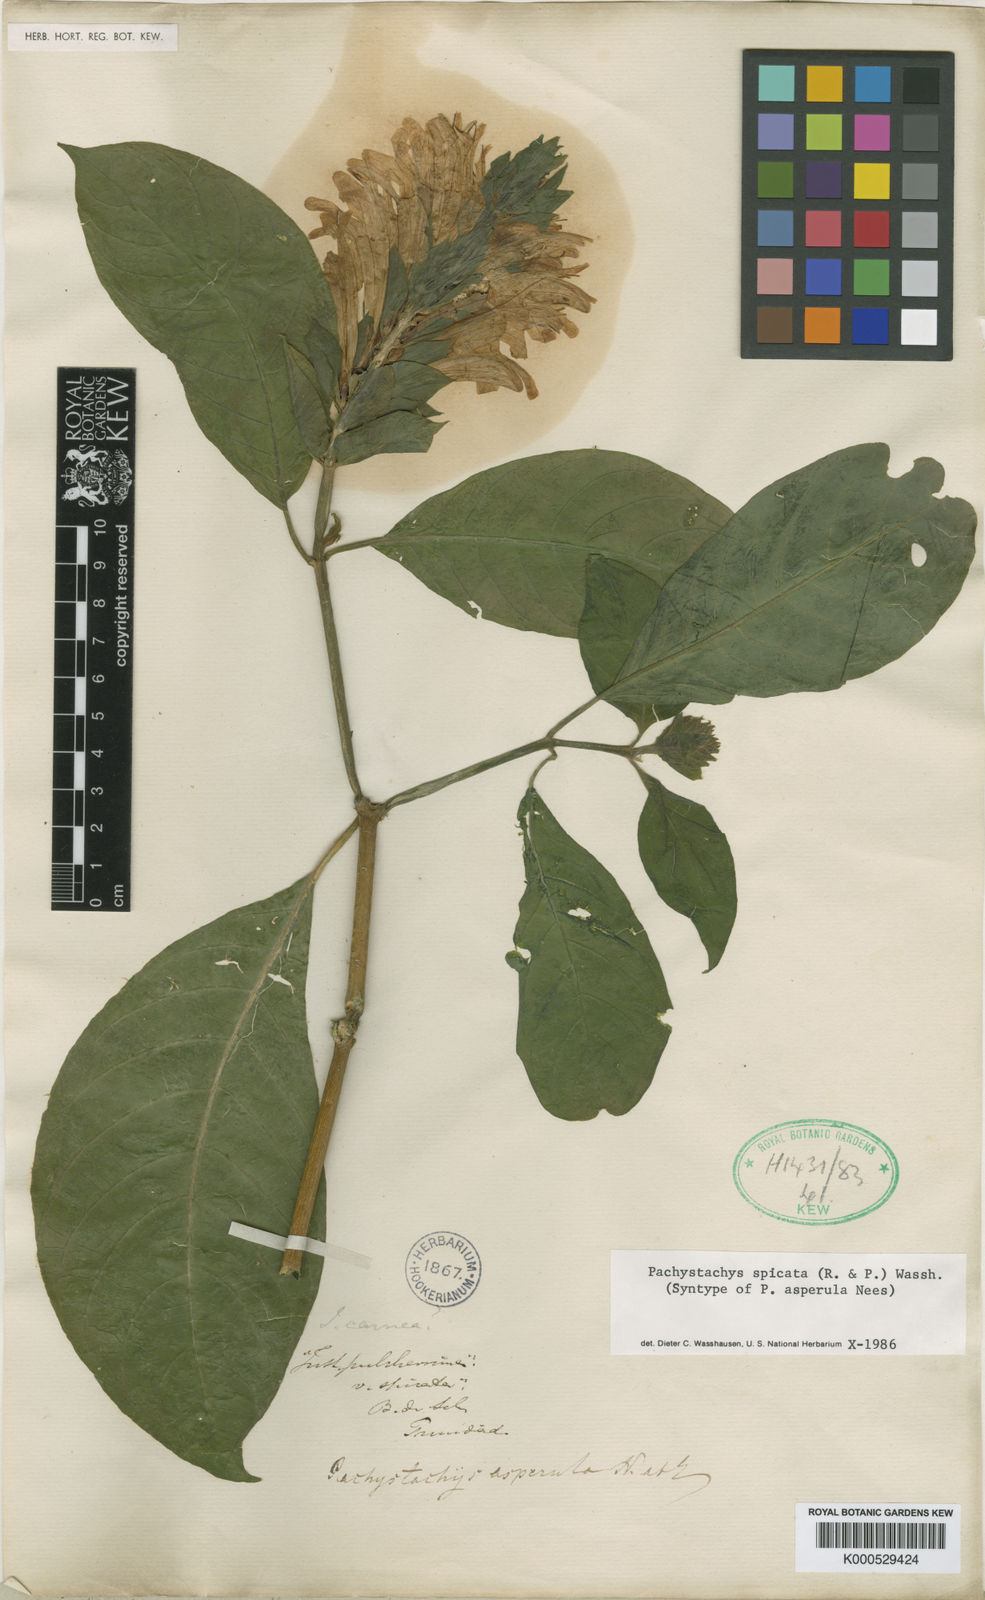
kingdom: Plantae
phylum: Tracheophyta
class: Magnoliopsida
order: Lamiales
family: Acanthaceae
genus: Pachystachys
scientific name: Pachystachys spicata
